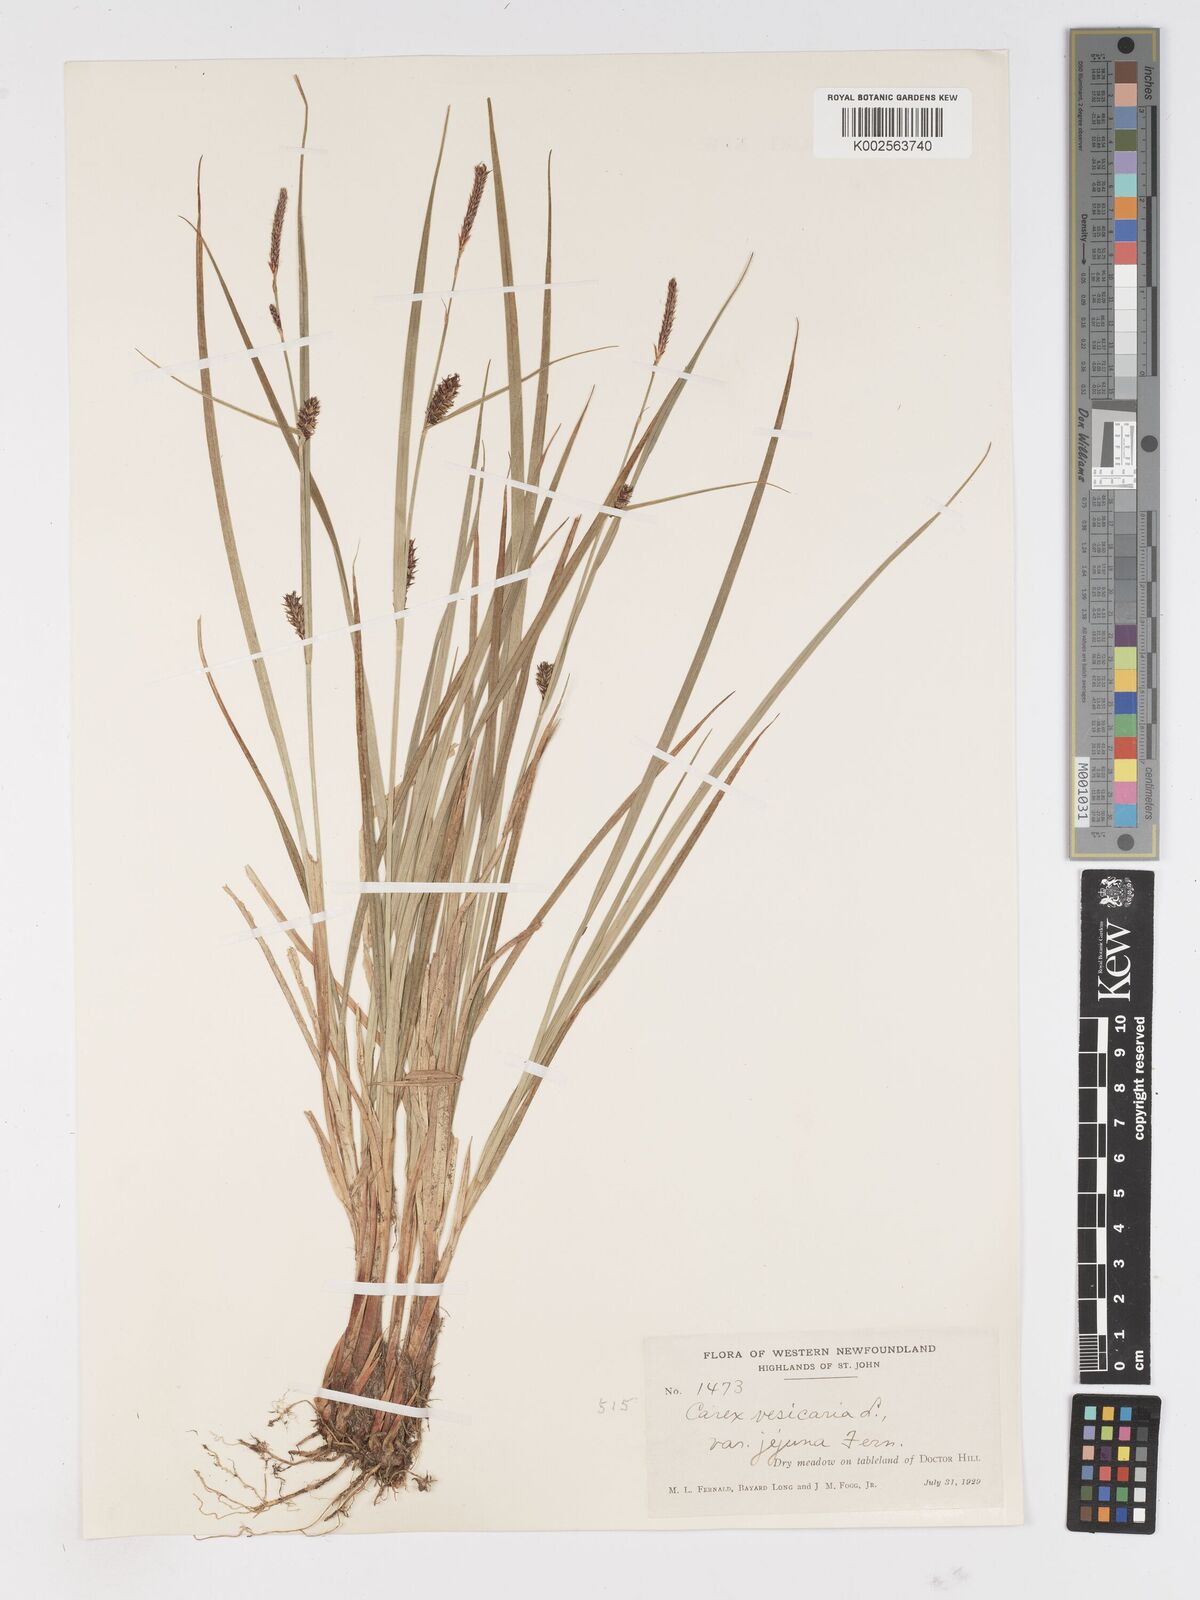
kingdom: Plantae
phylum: Tracheophyta
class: Liliopsida
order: Poales
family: Cyperaceae
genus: Carex
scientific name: Carex vesicaria
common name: Bladder-sedge
